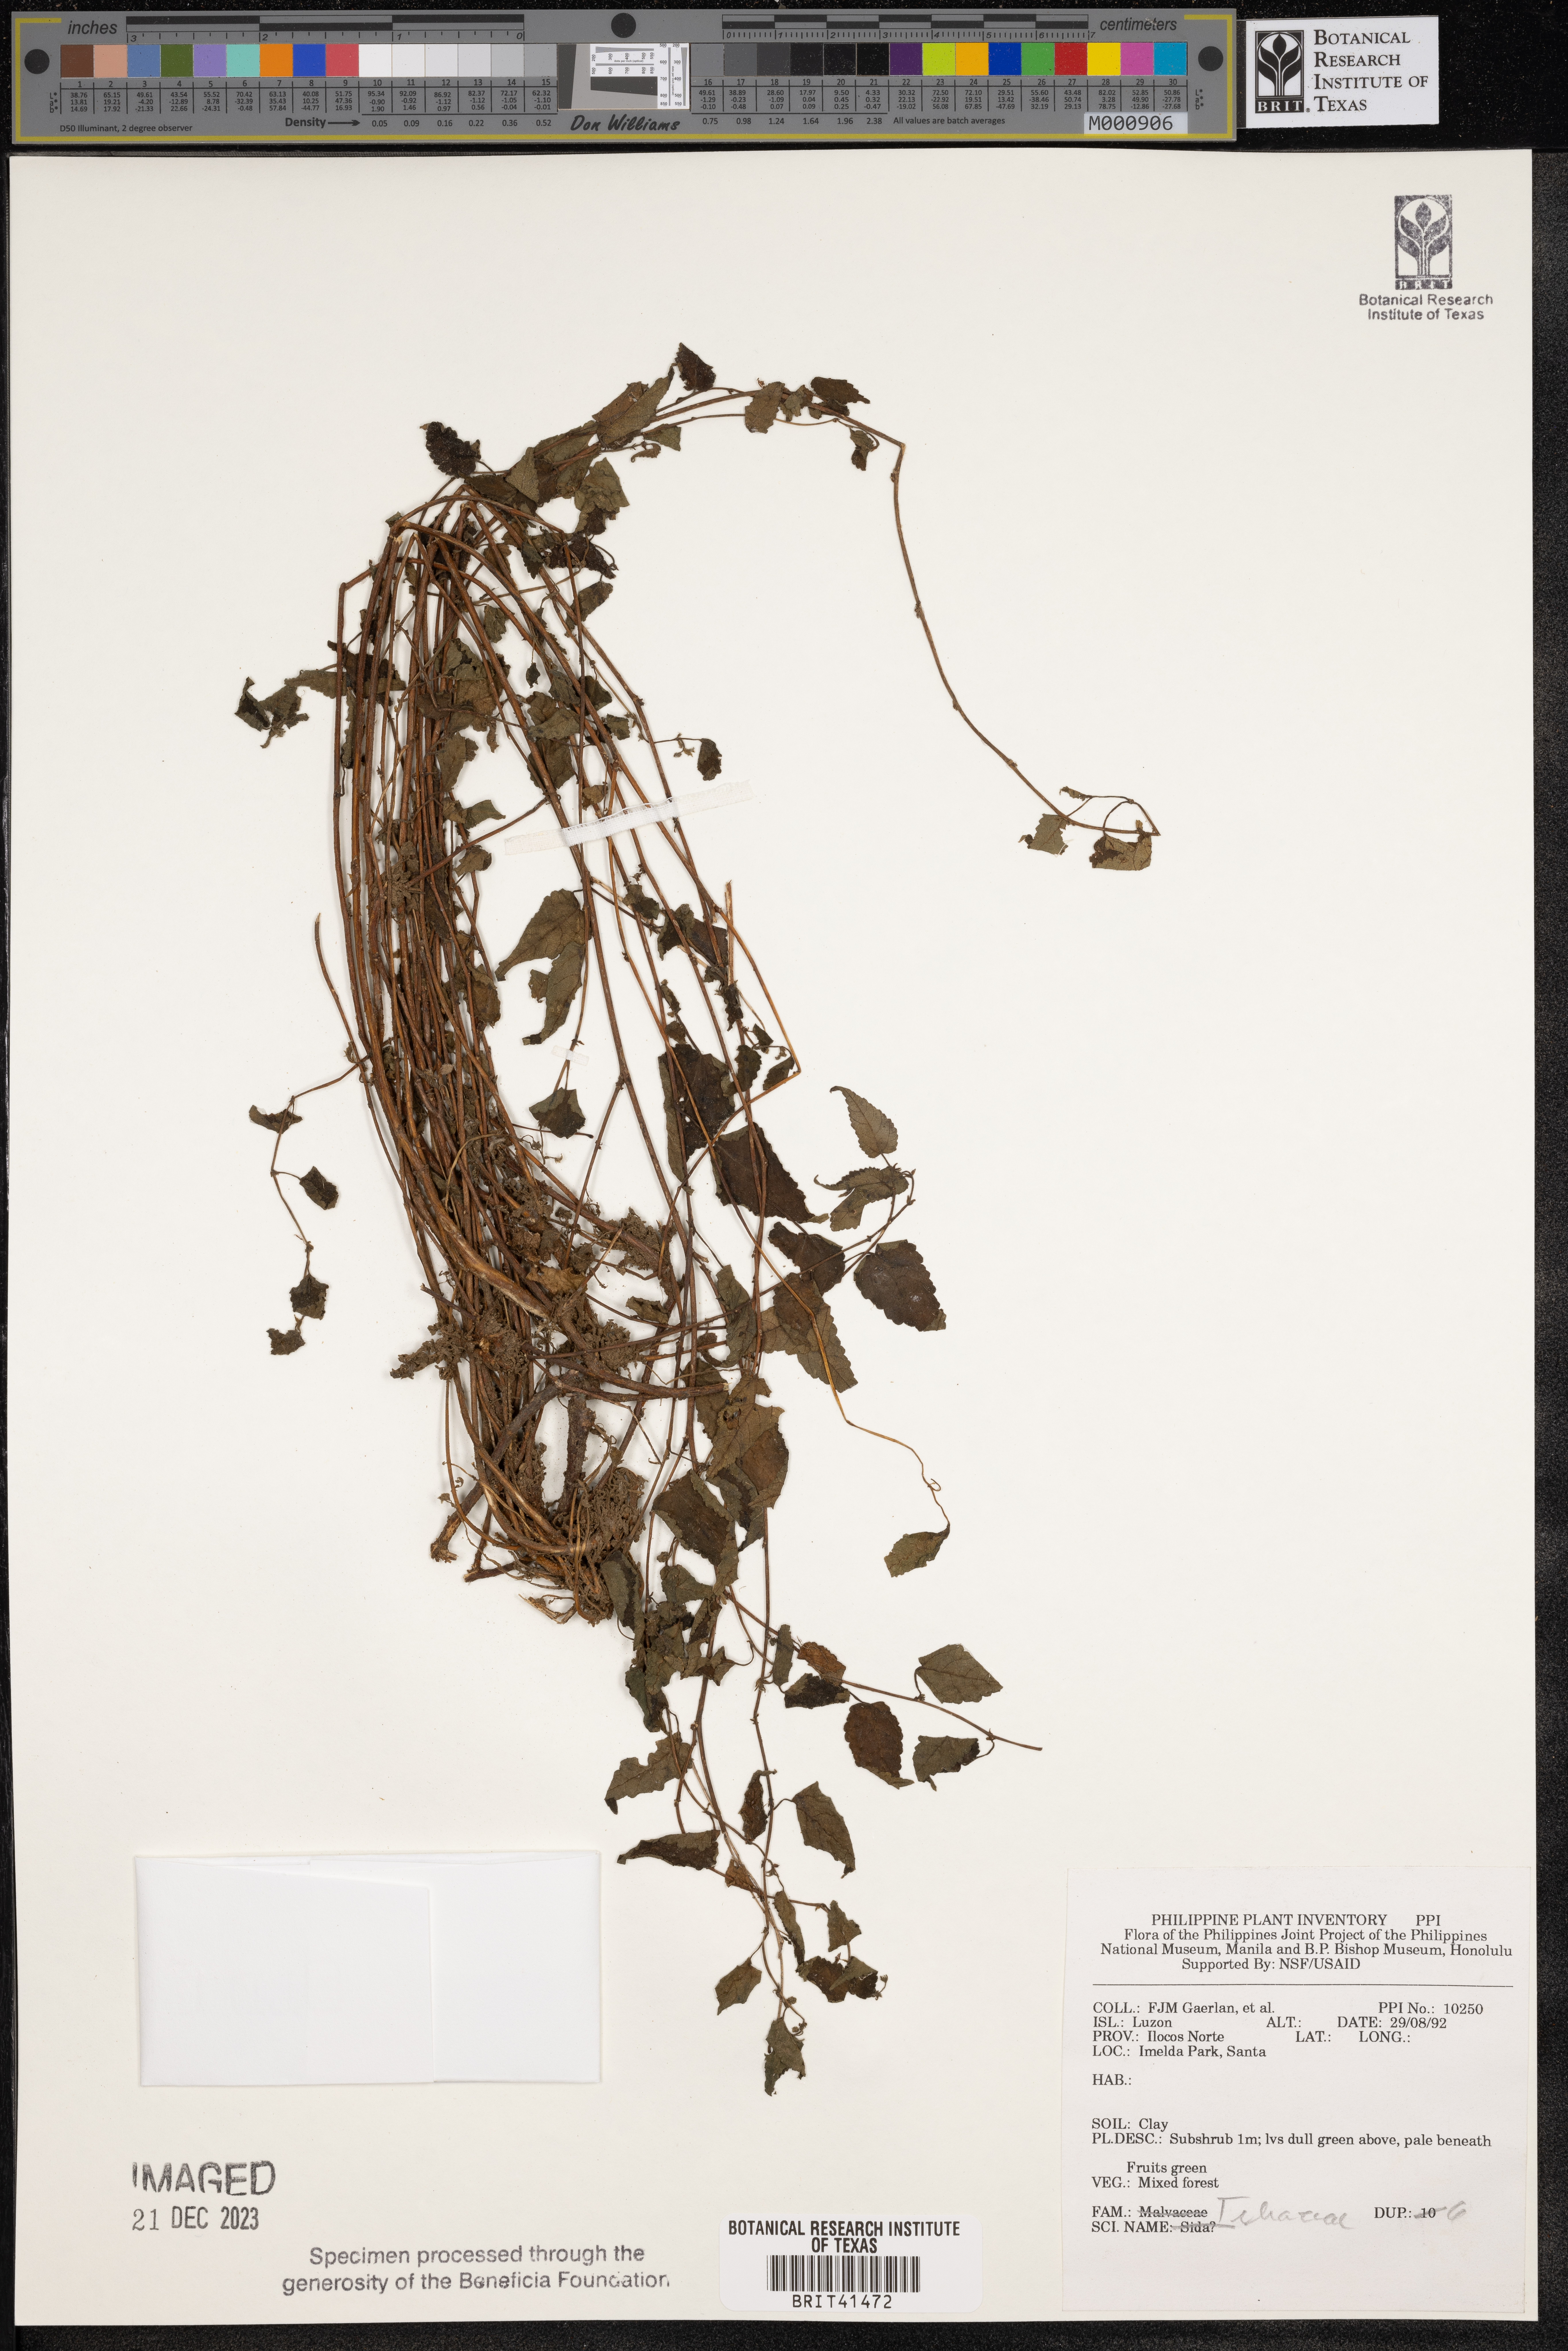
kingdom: Plantae
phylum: Tracheophyta
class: Magnoliopsida
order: Malvales
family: Tiliaceae
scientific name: Tiliaceae
